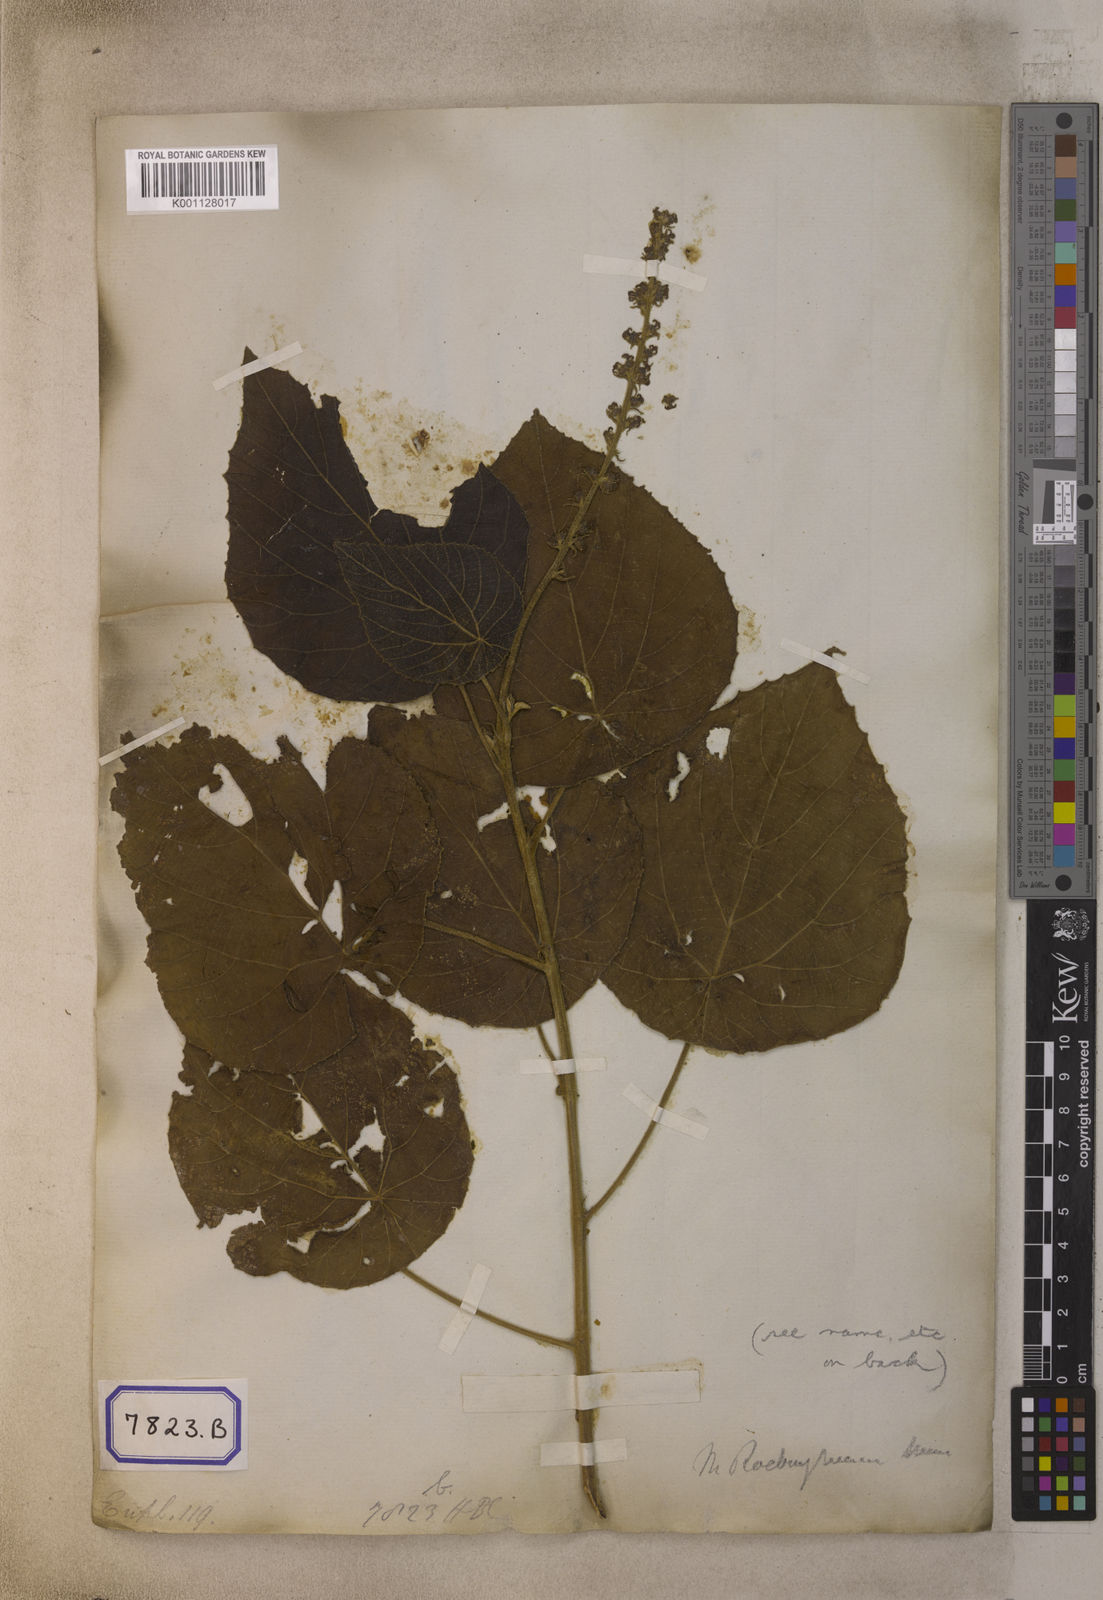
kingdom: Plantae
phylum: Tracheophyta
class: Magnoliopsida
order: Malpighiales
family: Euphorbiaceae
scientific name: Euphorbiaceae
